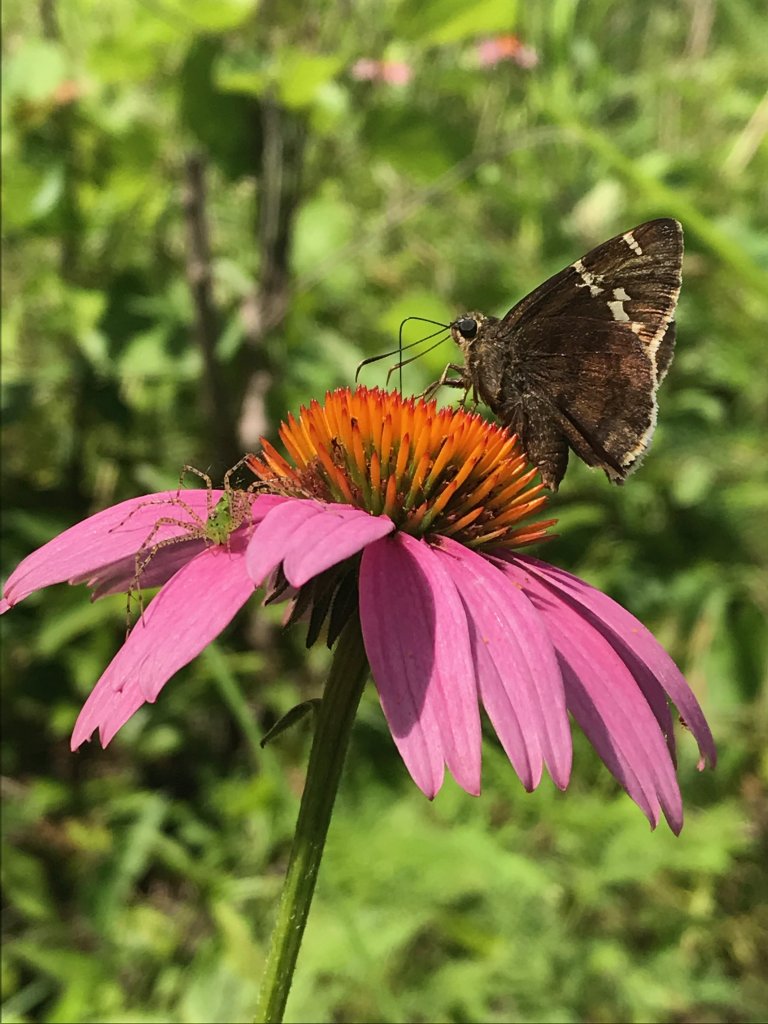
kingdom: Animalia
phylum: Arthropoda
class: Insecta
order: Lepidoptera
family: Hesperiidae
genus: Autochton
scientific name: Autochton
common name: Southern Cloudywing
